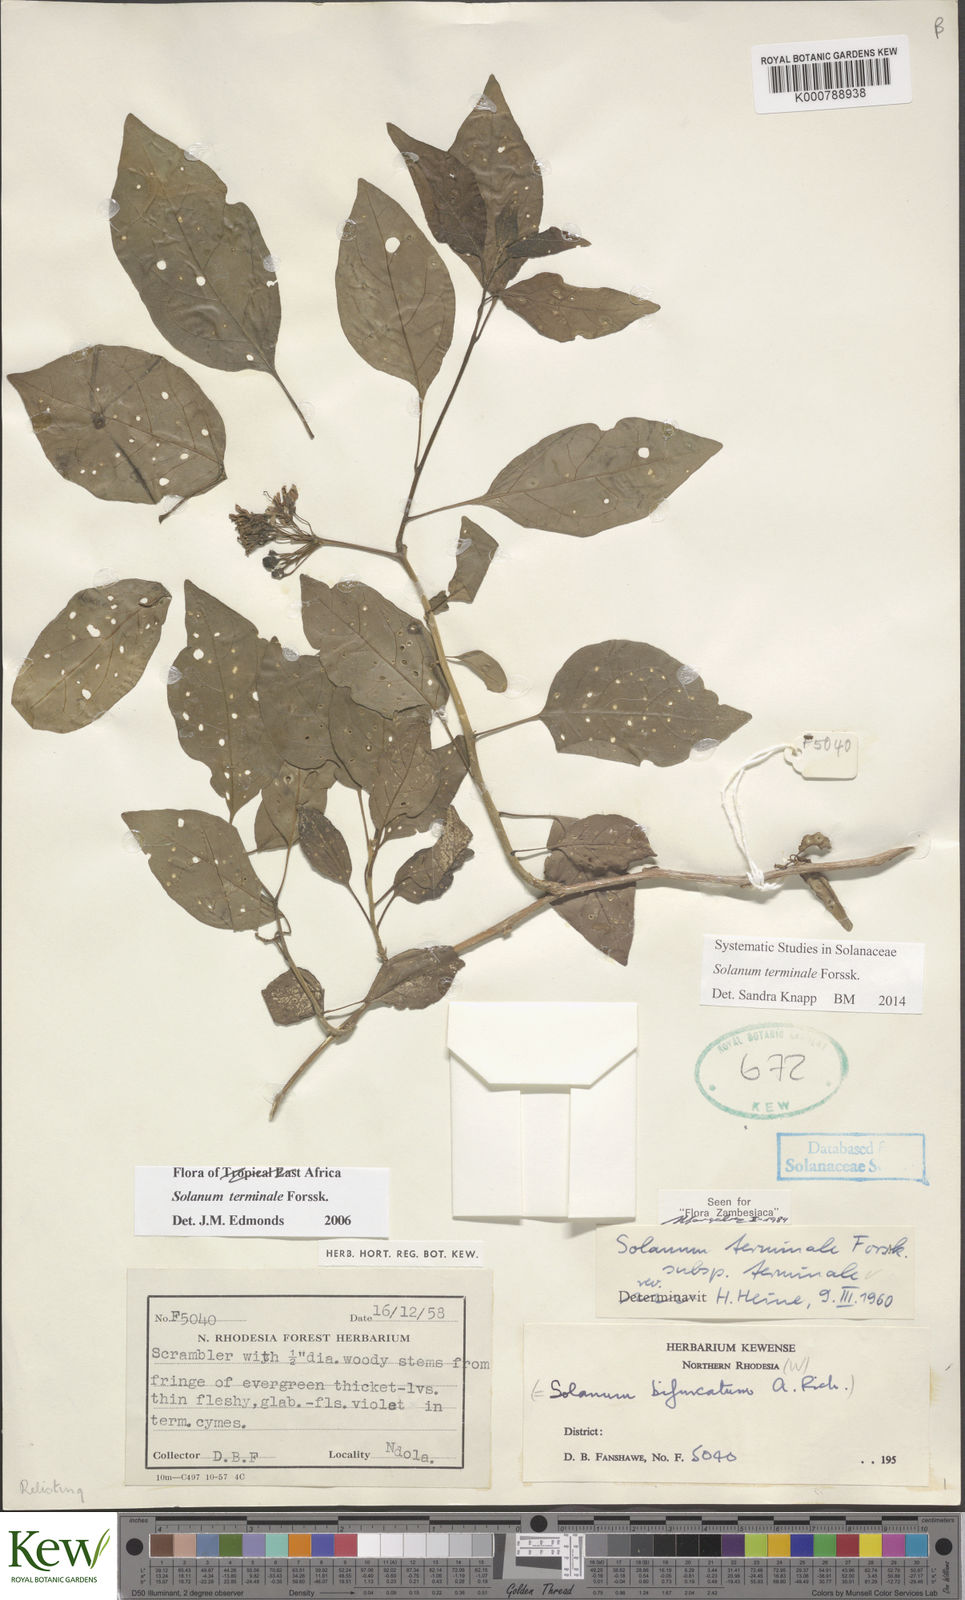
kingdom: Plantae
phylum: Tracheophyta
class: Magnoliopsida
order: Solanales
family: Solanaceae
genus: Solanum
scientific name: Solanum terminale
